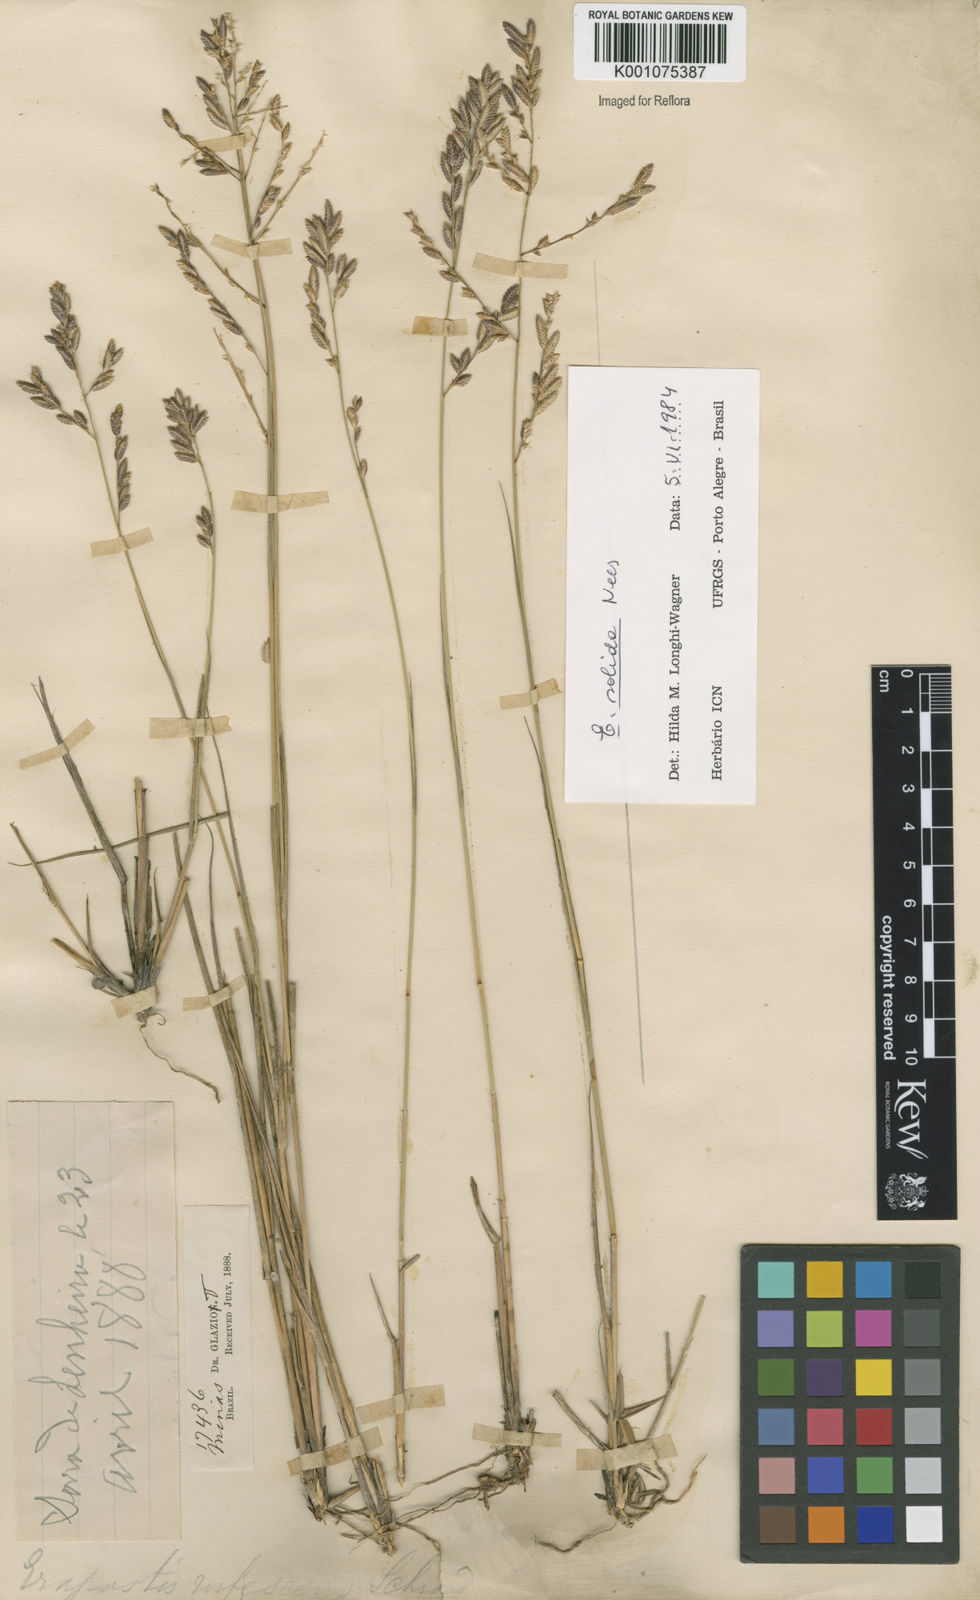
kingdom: Plantae
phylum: Tracheophyta
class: Liliopsida
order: Poales
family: Poaceae
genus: Eragrostis
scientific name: Eragrostis solida
